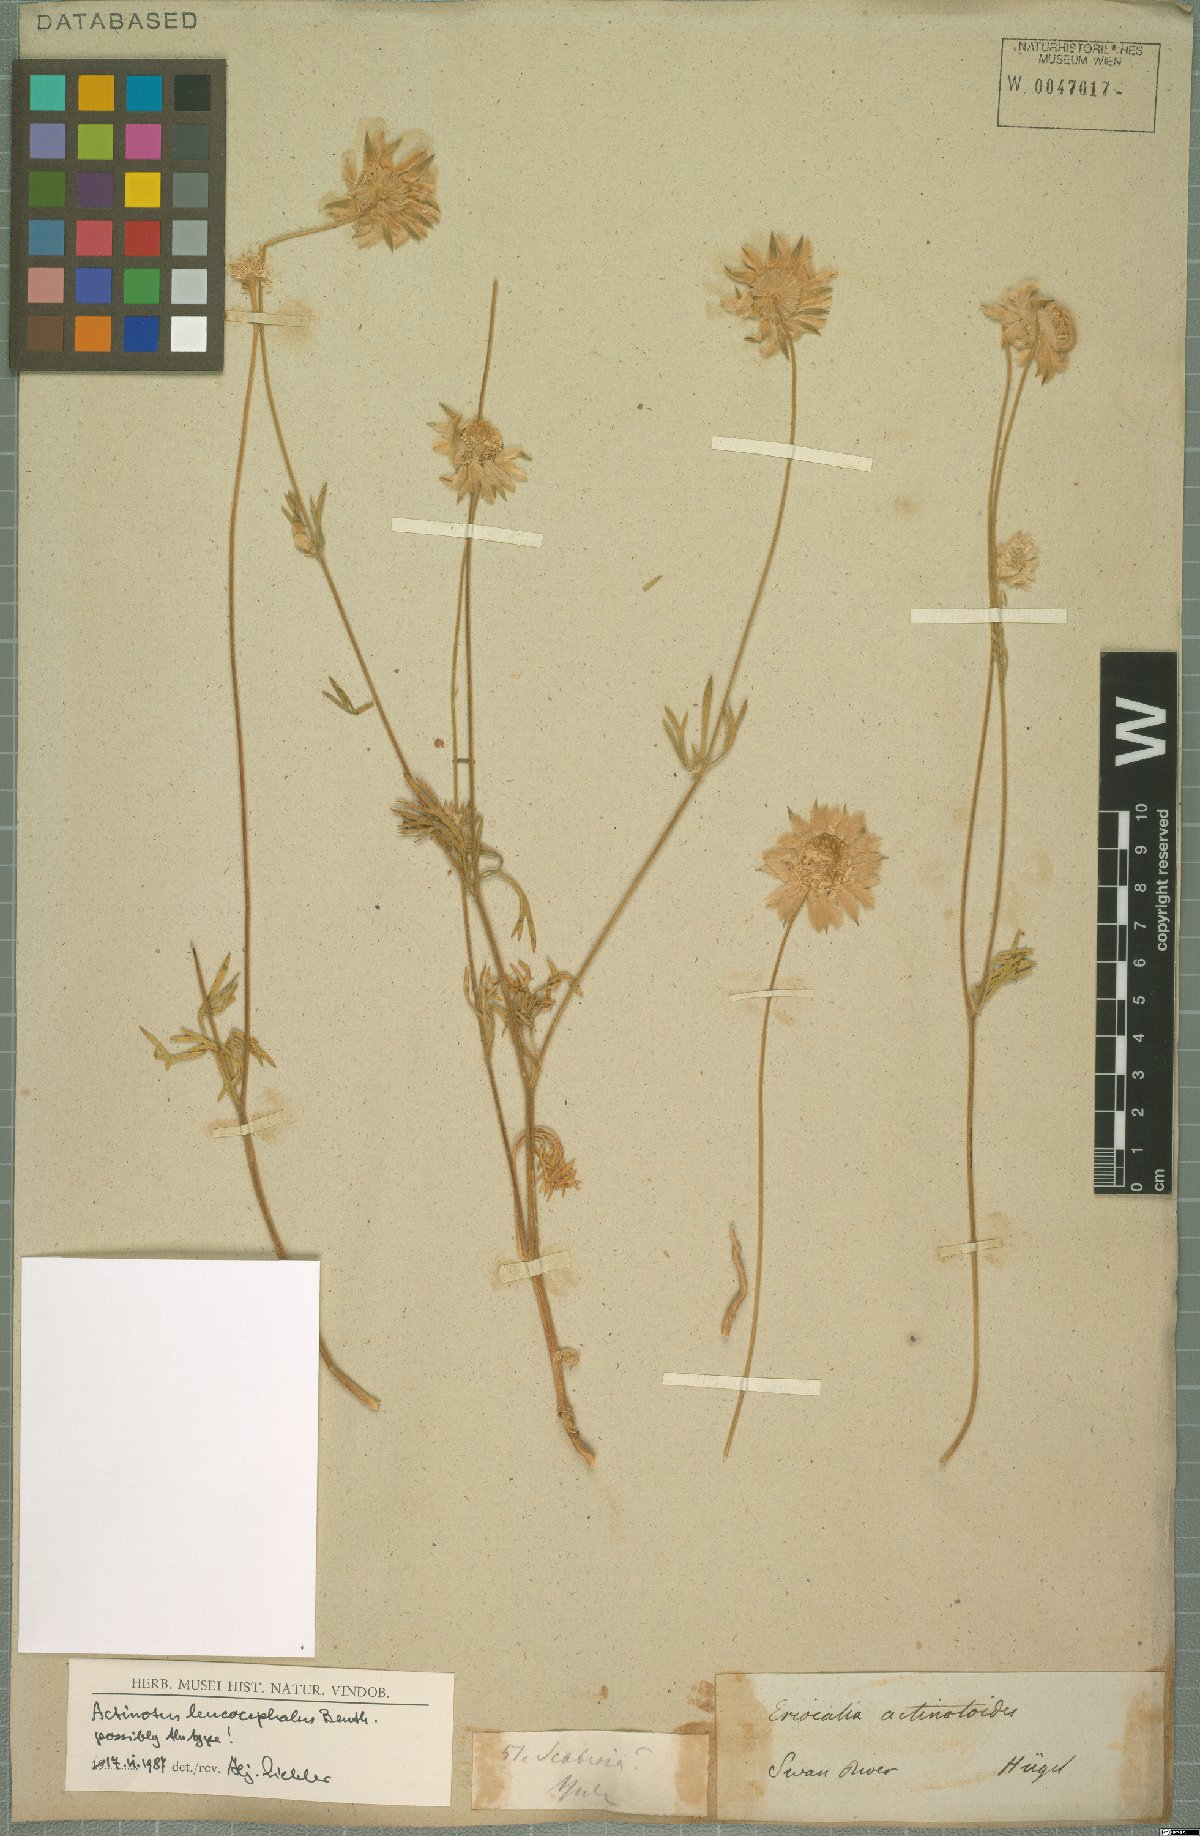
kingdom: Plantae
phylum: Tracheophyta
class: Magnoliopsida
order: Apiales
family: Apiaceae
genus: Actinotus
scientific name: Actinotus leucocephalus
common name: Flannel-flower
